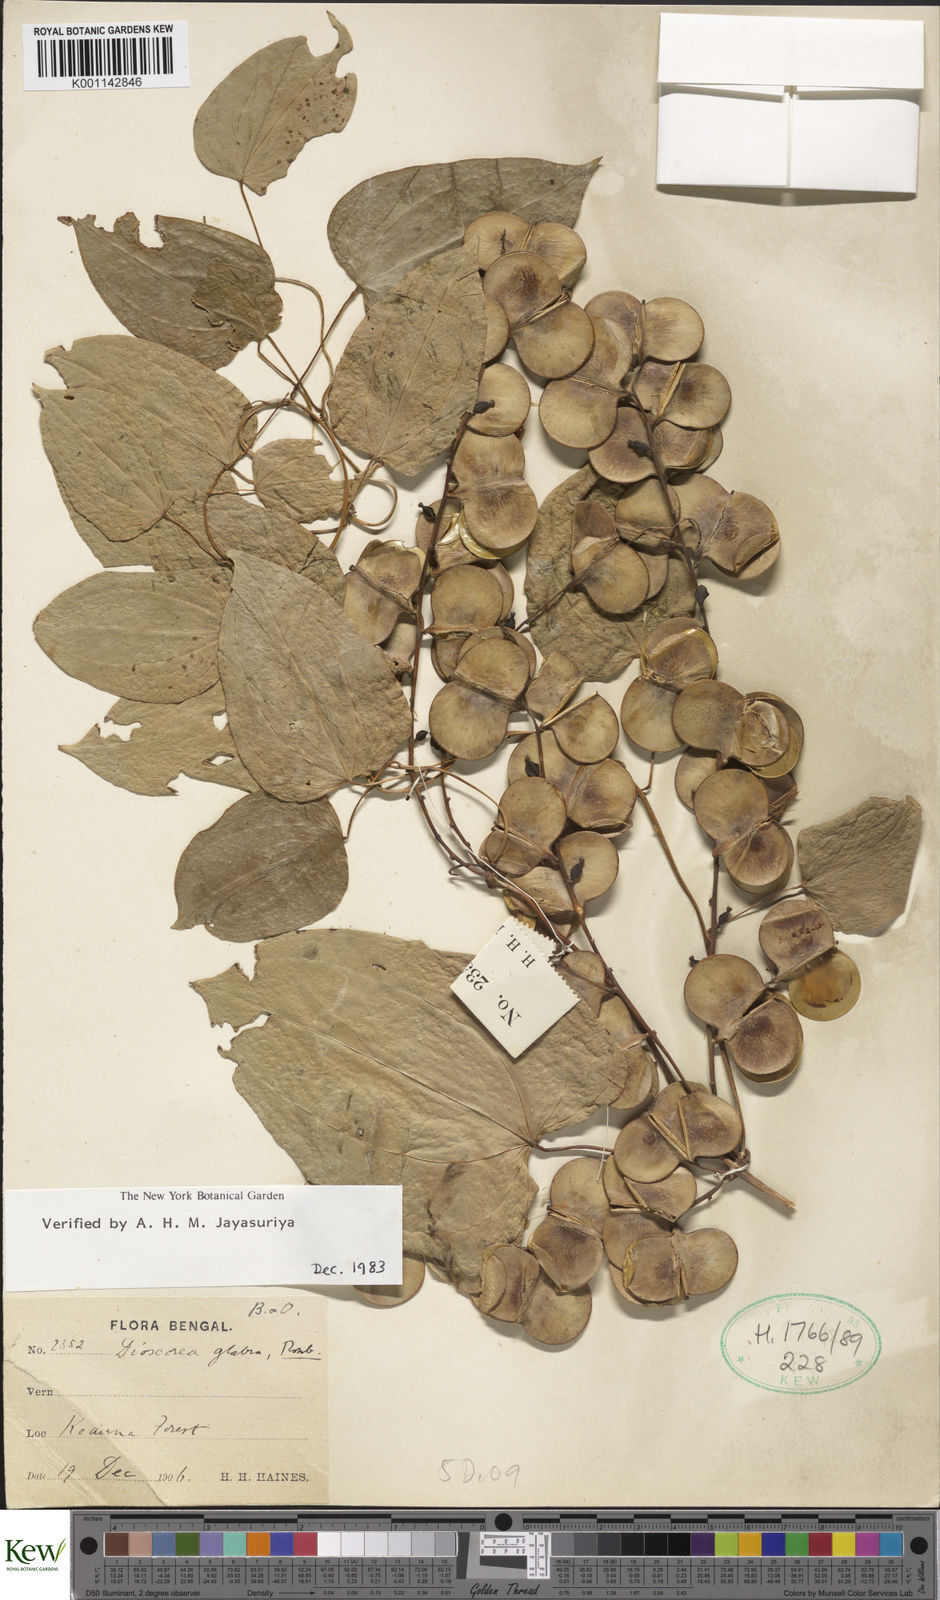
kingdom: Plantae
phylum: Tracheophyta
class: Liliopsida
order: Dioscoreales
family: Dioscoreaceae
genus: Dioscorea
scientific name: Dioscorea glabra
